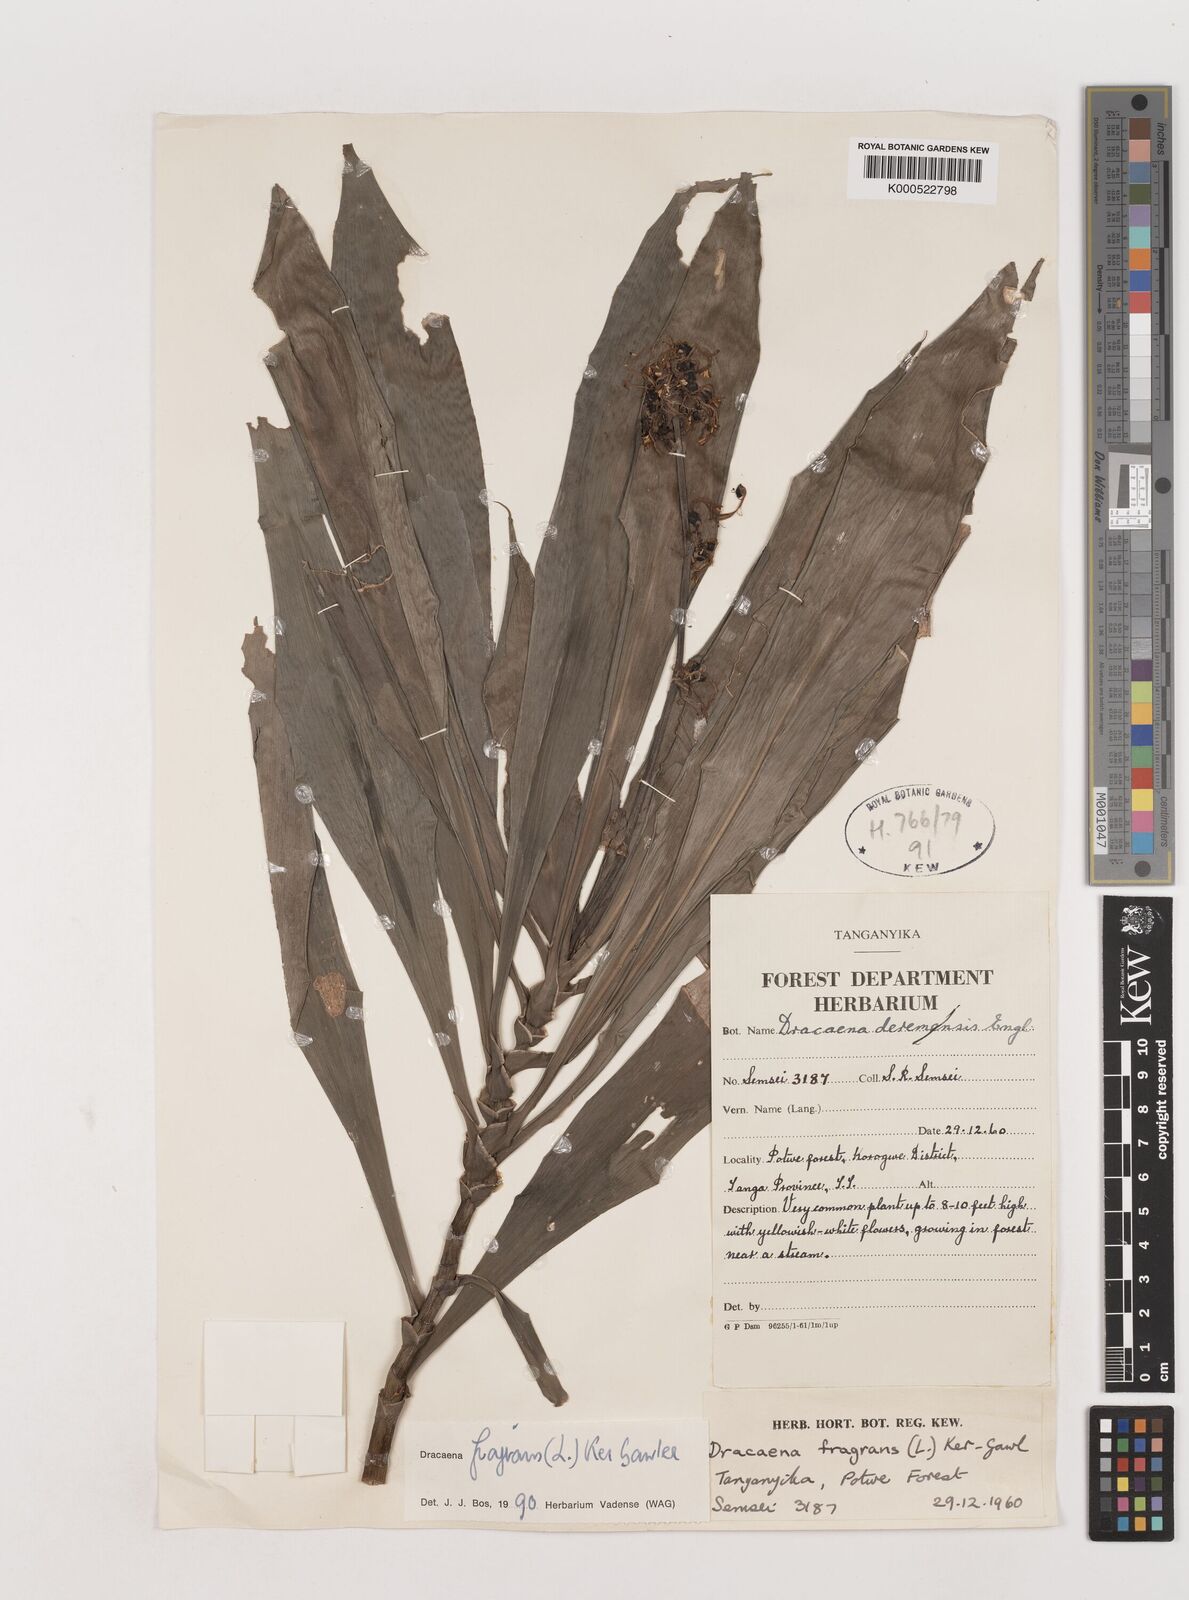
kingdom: Plantae
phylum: Tracheophyta
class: Liliopsida
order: Asparagales
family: Asparagaceae
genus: Dracaena
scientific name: Dracaena fragrans
